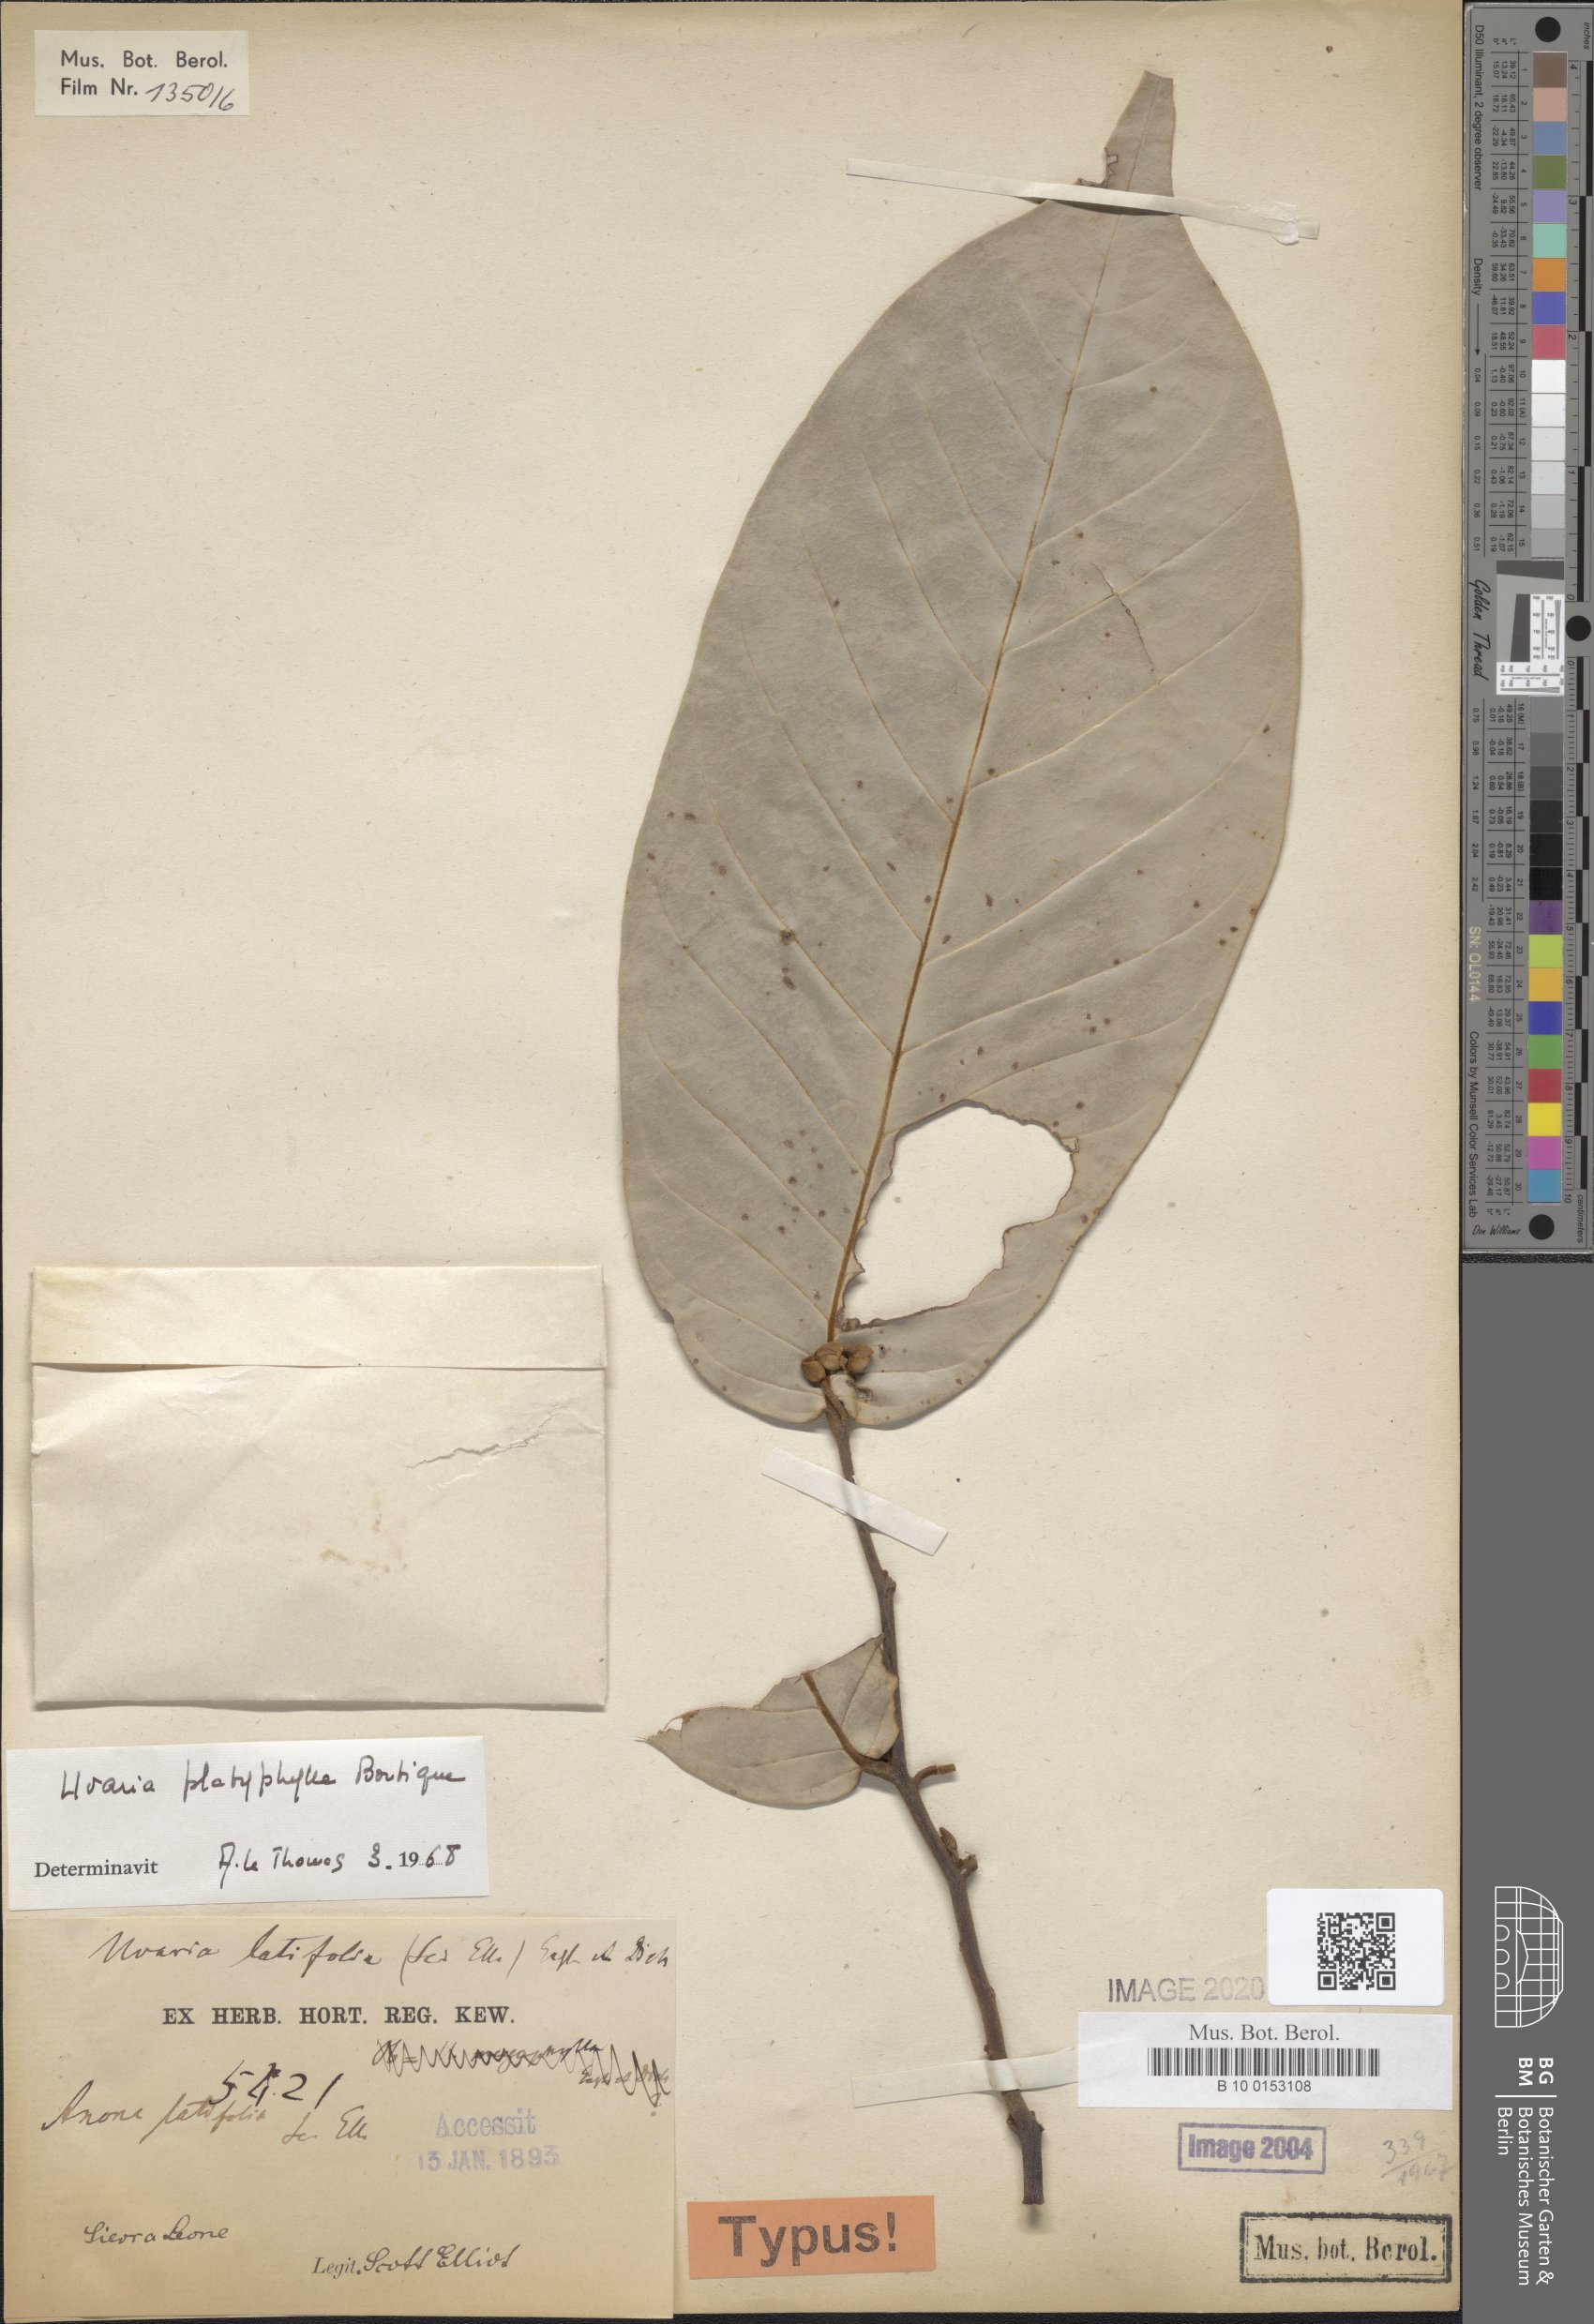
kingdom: Plantae
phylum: Tracheophyta
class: Magnoliopsida
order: Magnoliales
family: Annonaceae
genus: Uvaria
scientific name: Uvaria anonoides
